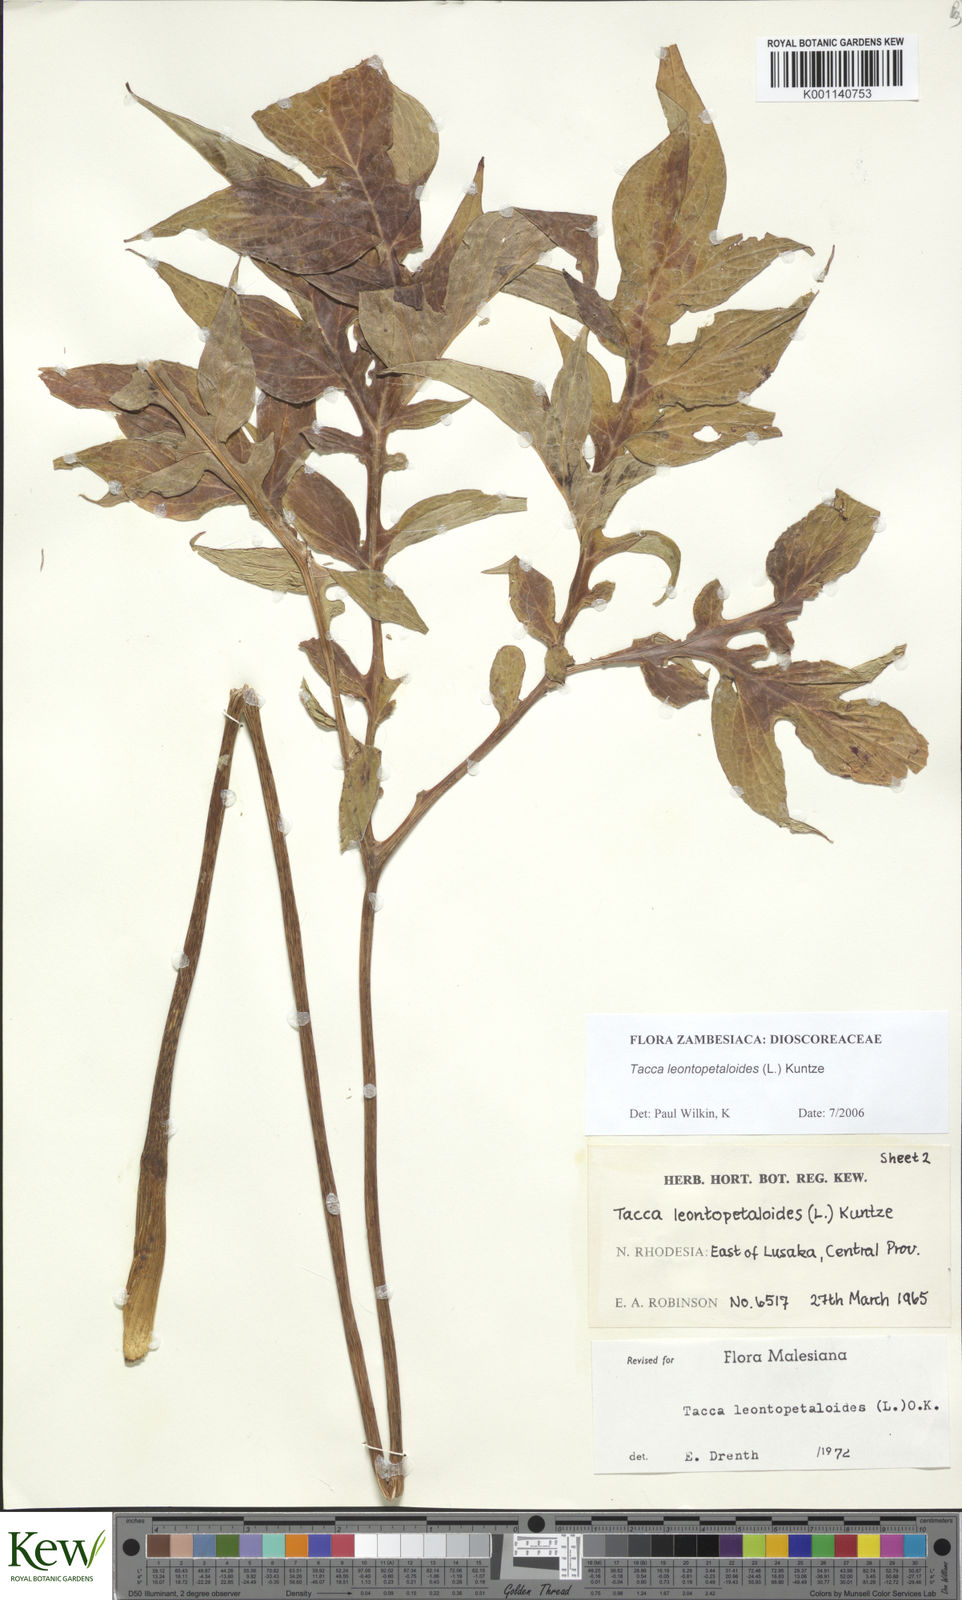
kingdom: Plantae
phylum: Tracheophyta
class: Liliopsida
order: Dioscoreales
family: Dioscoreaceae
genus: Tacca
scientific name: Tacca leontopetaloides
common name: Arrowroot
